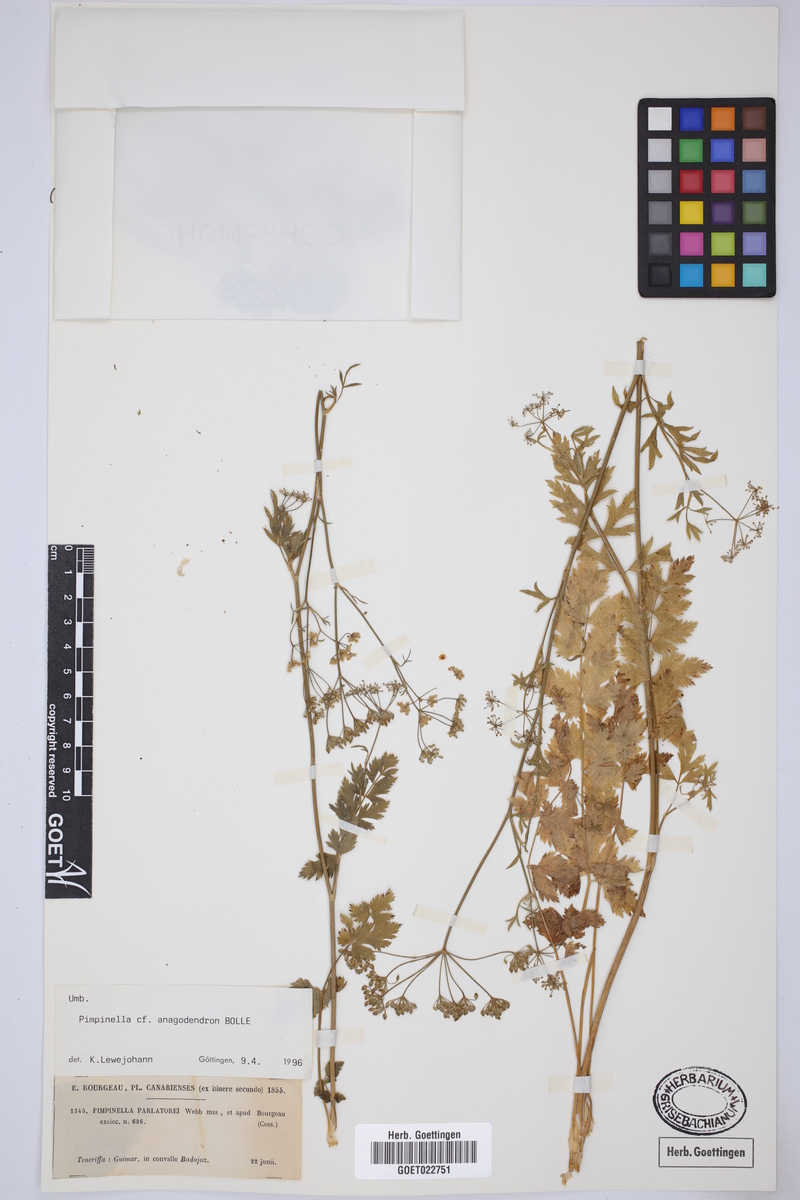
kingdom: Plantae
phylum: Tracheophyta
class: Magnoliopsida
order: Apiales
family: Apiaceae
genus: Pimpinella
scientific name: Pimpinella anagodendron
